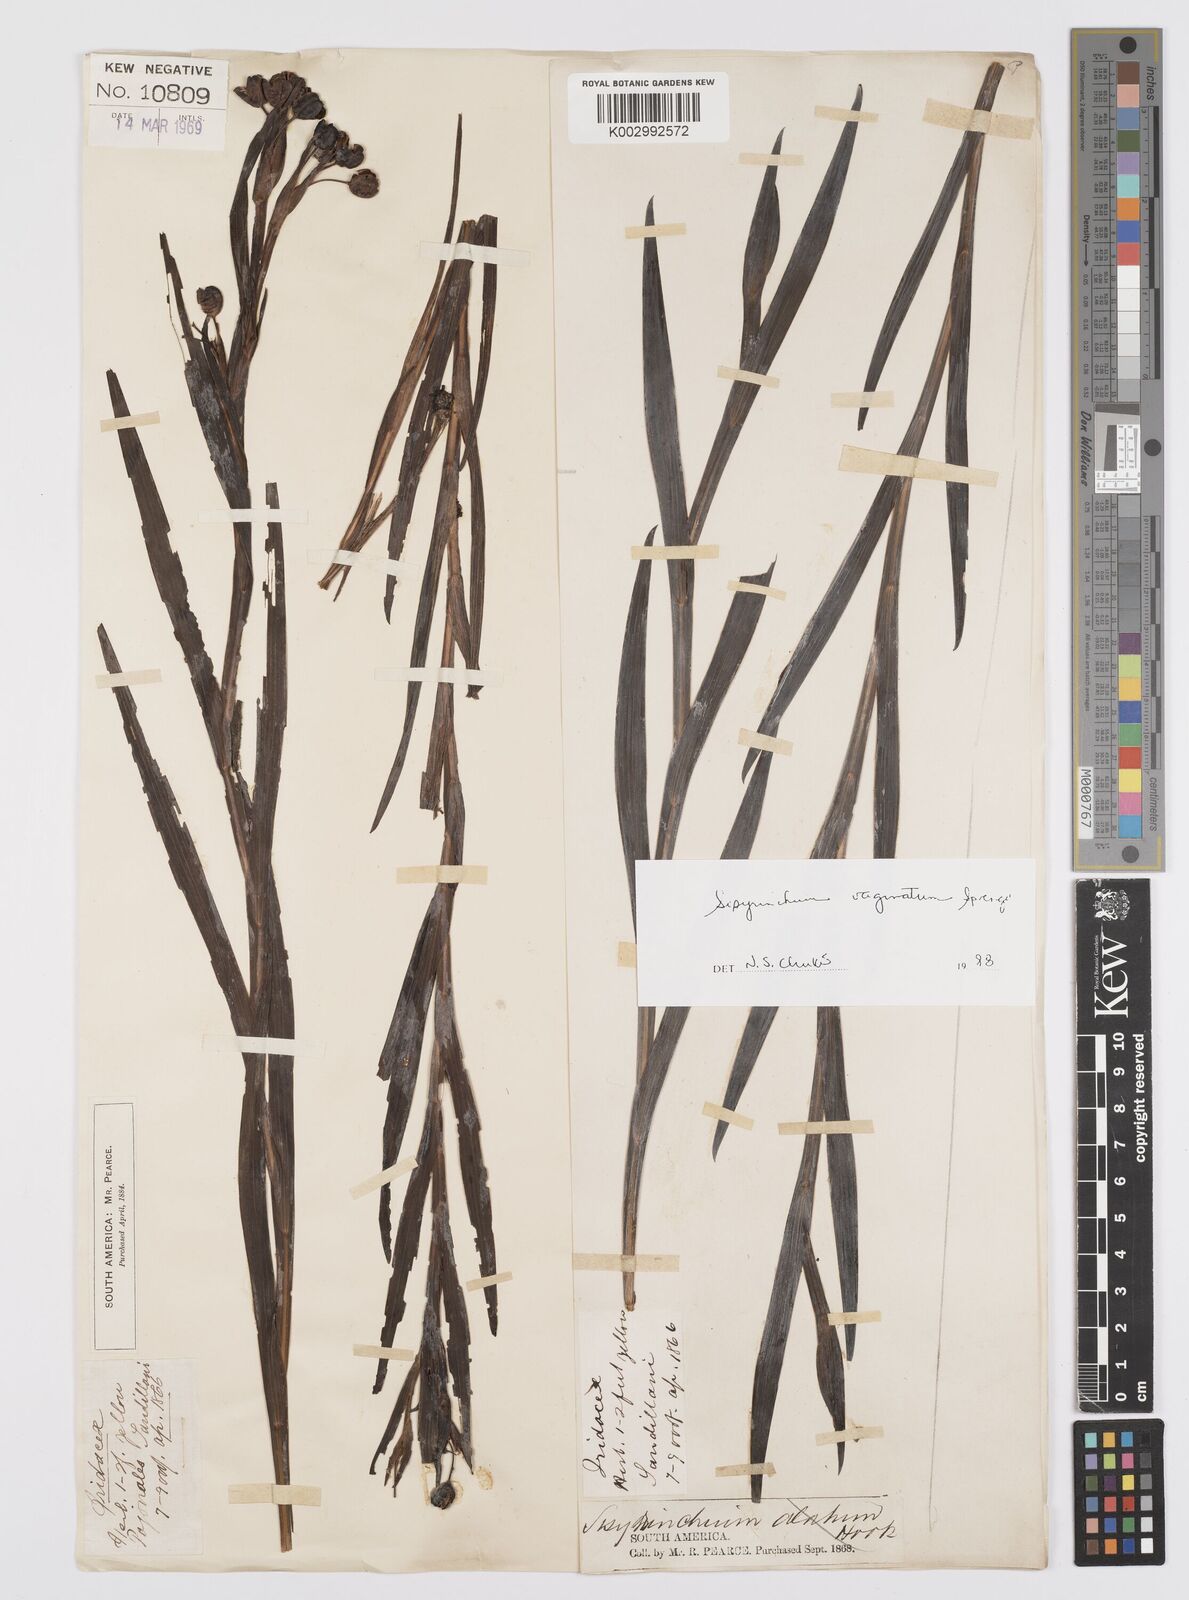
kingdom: Plantae
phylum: Tracheophyta
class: Liliopsida
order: Asparagales
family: Iridaceae
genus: Sisyrinchium
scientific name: Sisyrinchium vaginatum
